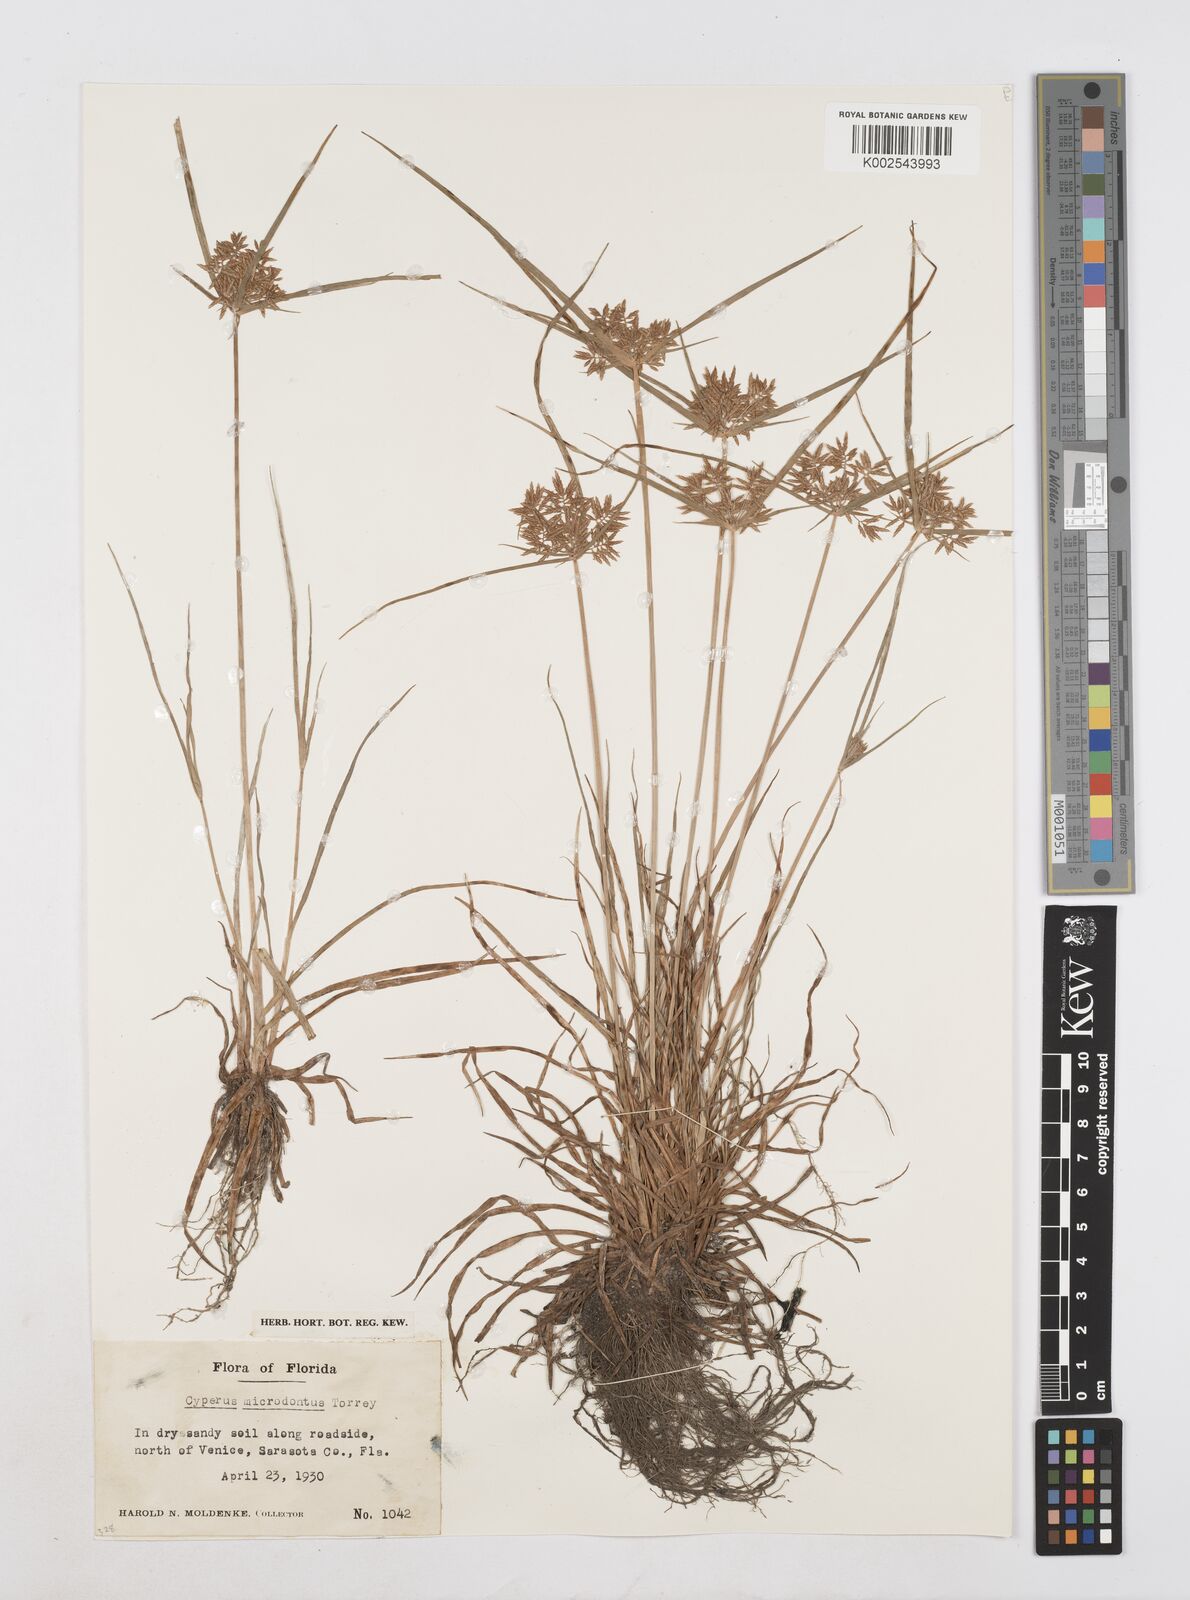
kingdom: Plantae
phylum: Tracheophyta
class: Liliopsida
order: Poales
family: Cyperaceae
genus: Cyperus
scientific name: Cyperus polystachyos
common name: Bunchy flat sedge
